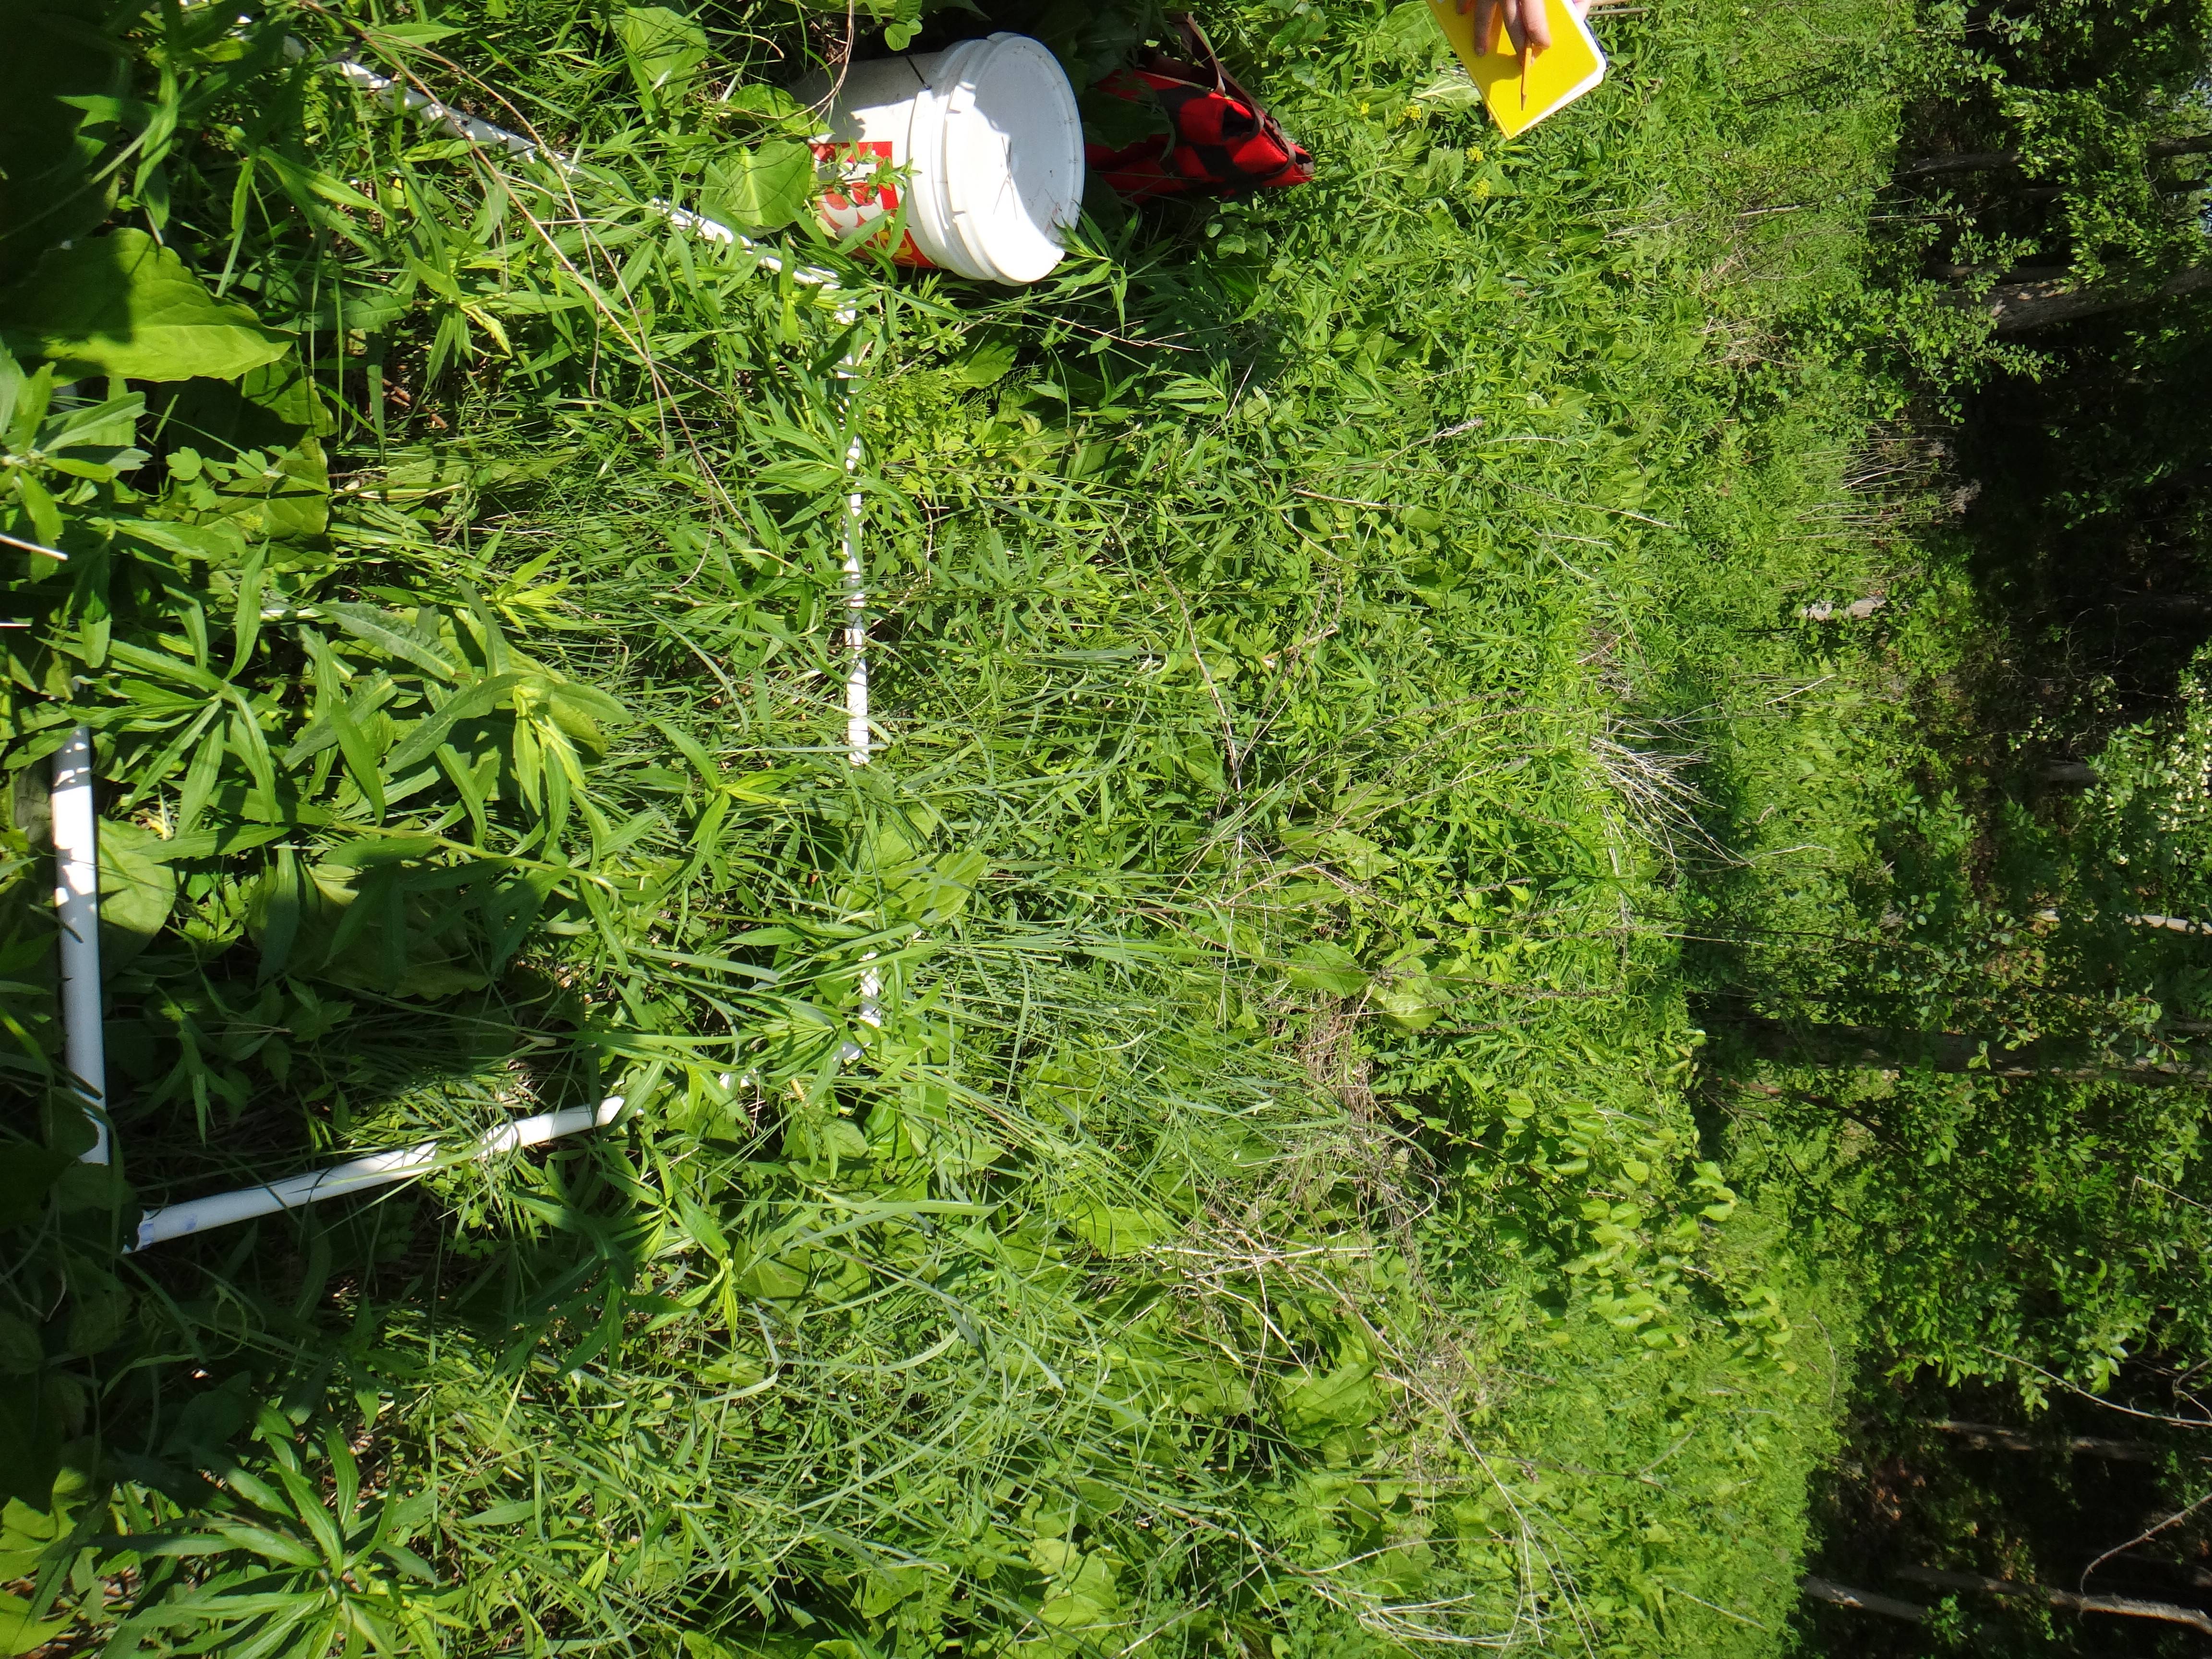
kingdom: Plantae
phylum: Tracheophyta
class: Liliopsida
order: Poales
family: Poaceae
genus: Anthoxanthum
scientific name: Anthoxanthum nitens
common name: Holy grass
